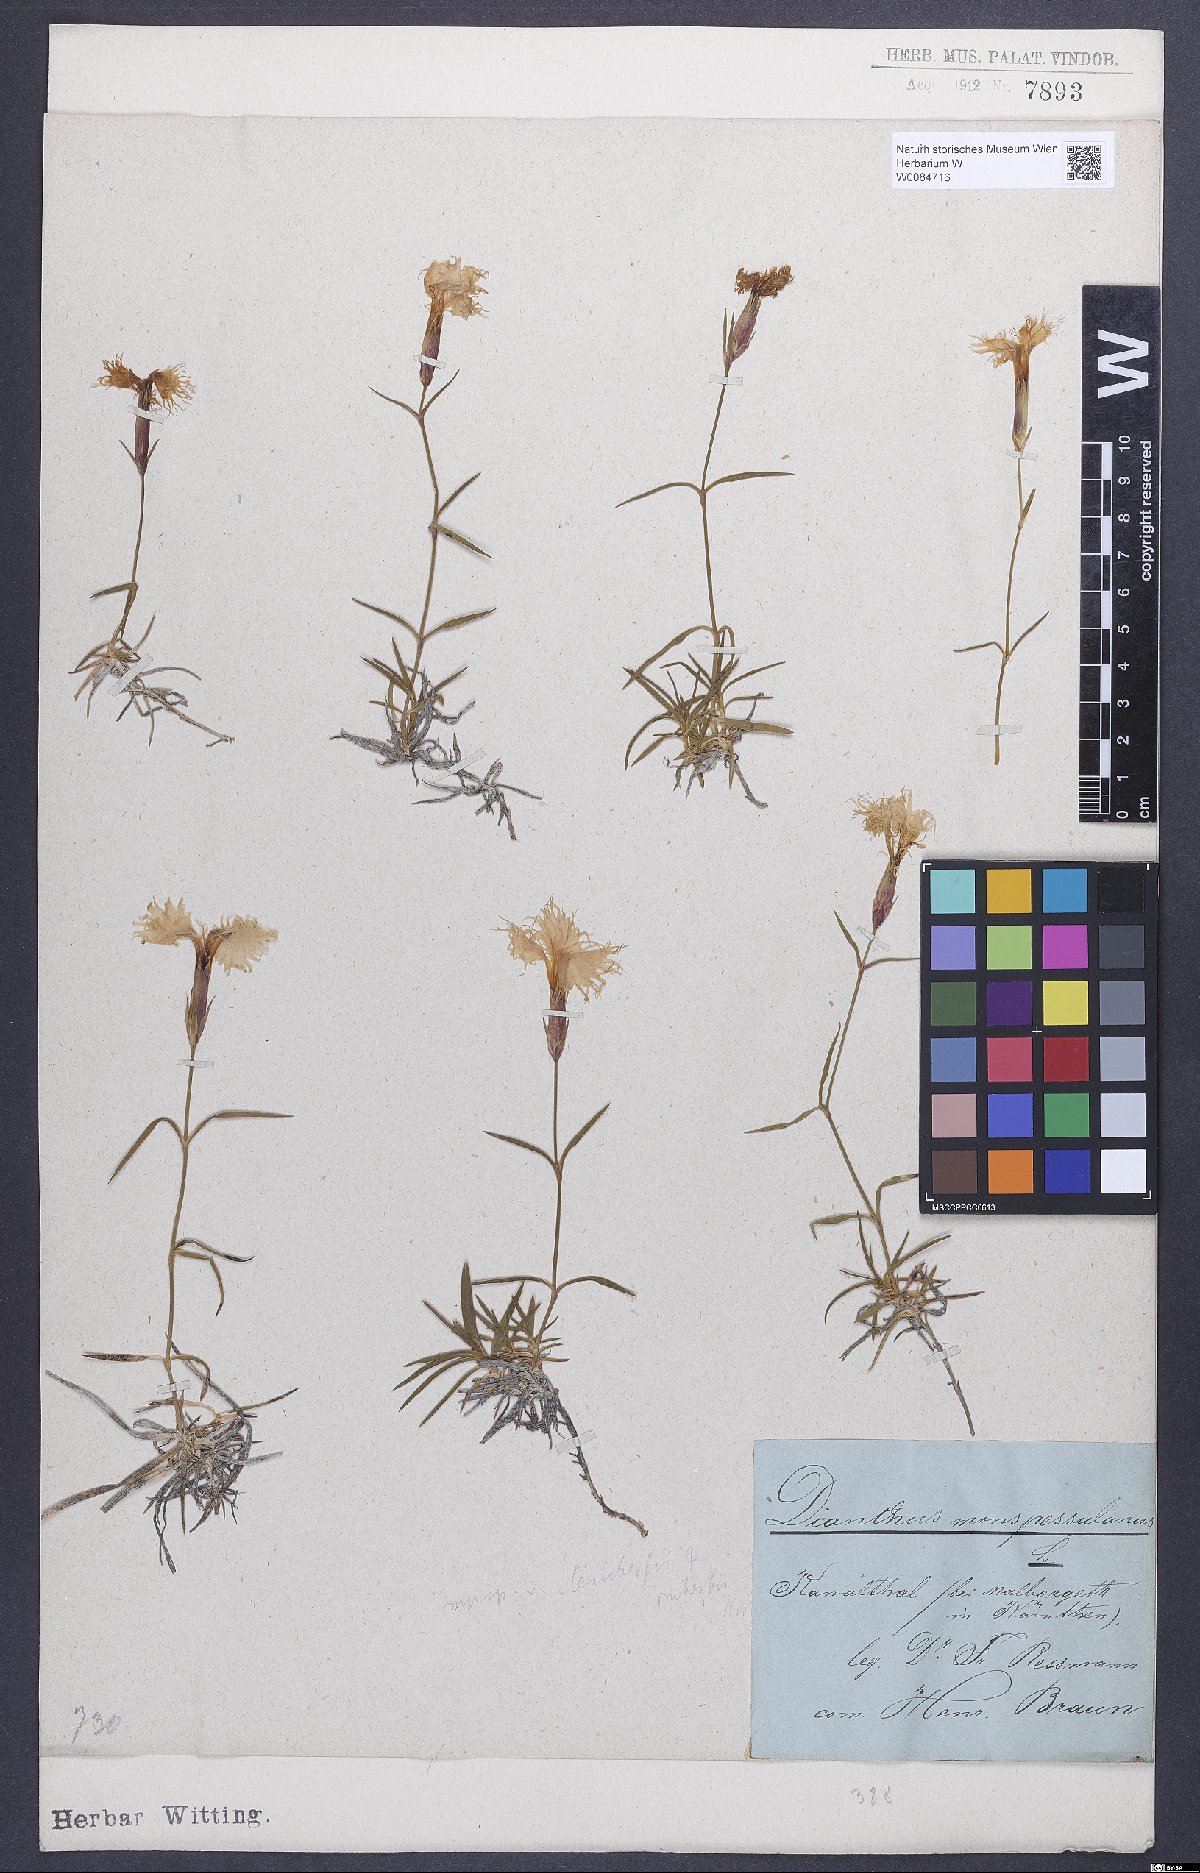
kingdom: Plantae
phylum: Tracheophyta
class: Magnoliopsida
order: Caryophyllales
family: Caryophyllaceae
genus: Dianthus
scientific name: Dianthus hyssopifolius
